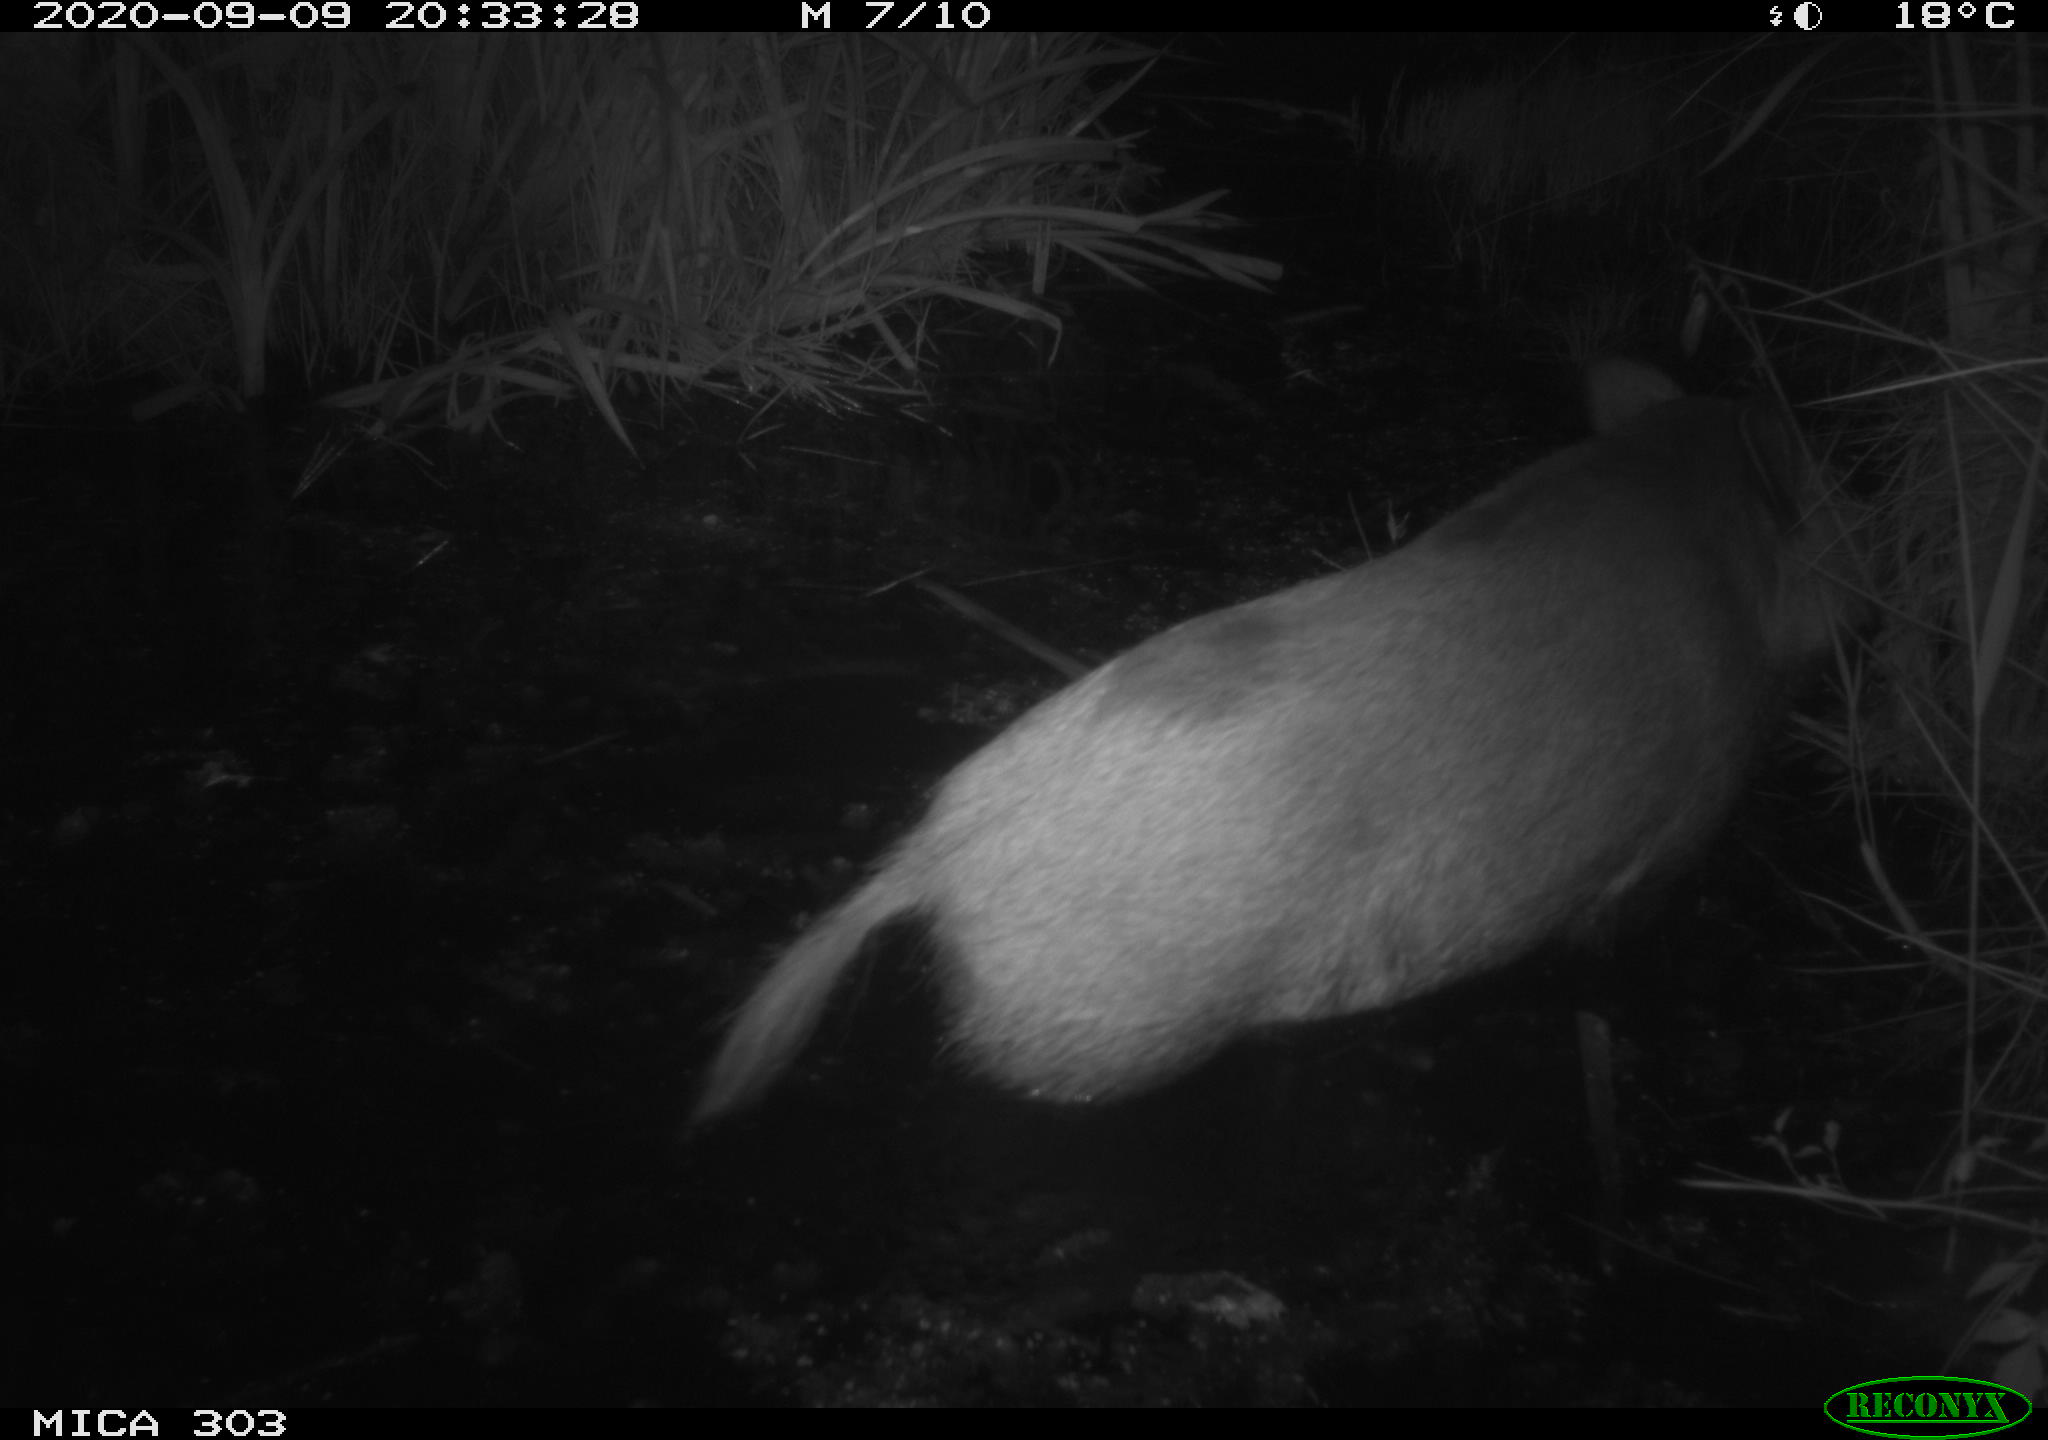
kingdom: Animalia
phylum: Chordata
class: Mammalia
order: Artiodactyla
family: Suidae
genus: Sus
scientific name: Sus scrofa
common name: Wild boar
